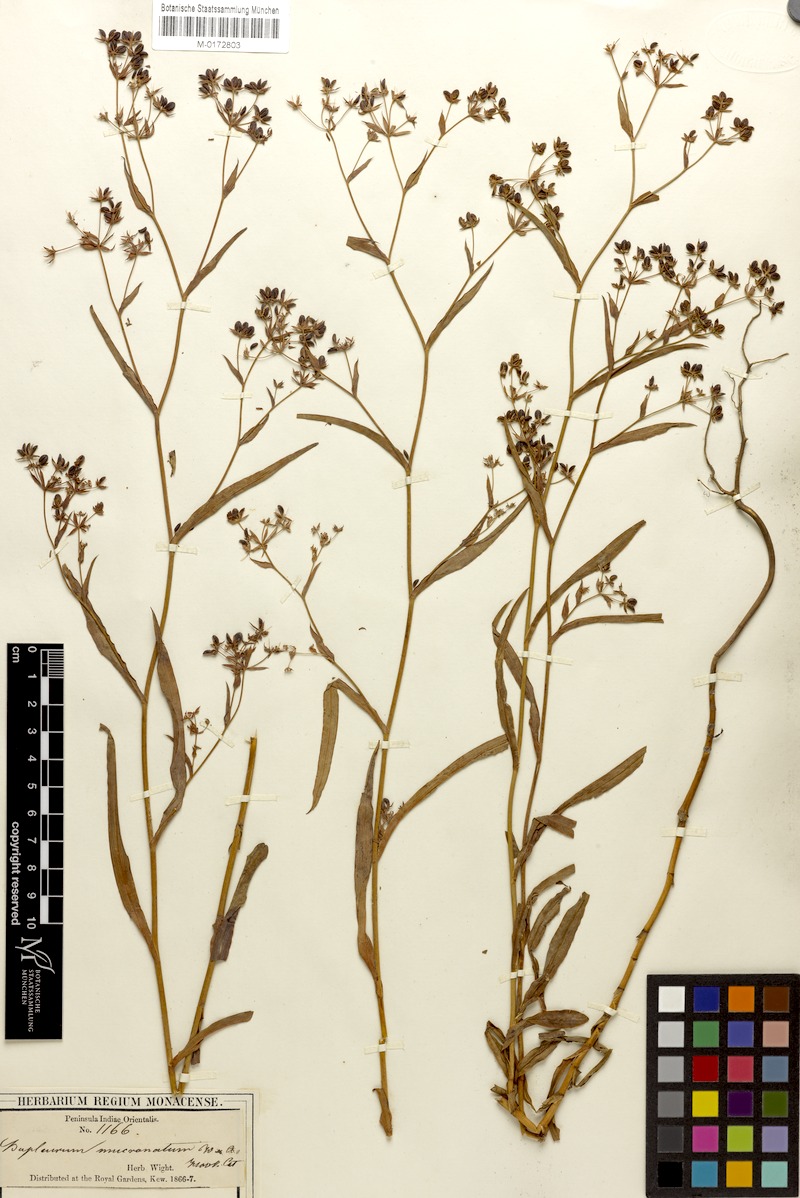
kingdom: Plantae
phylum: Tracheophyta
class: Magnoliopsida
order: Apiales
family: Apiaceae
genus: Bupleurum
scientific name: Bupleurum ramosissimum
